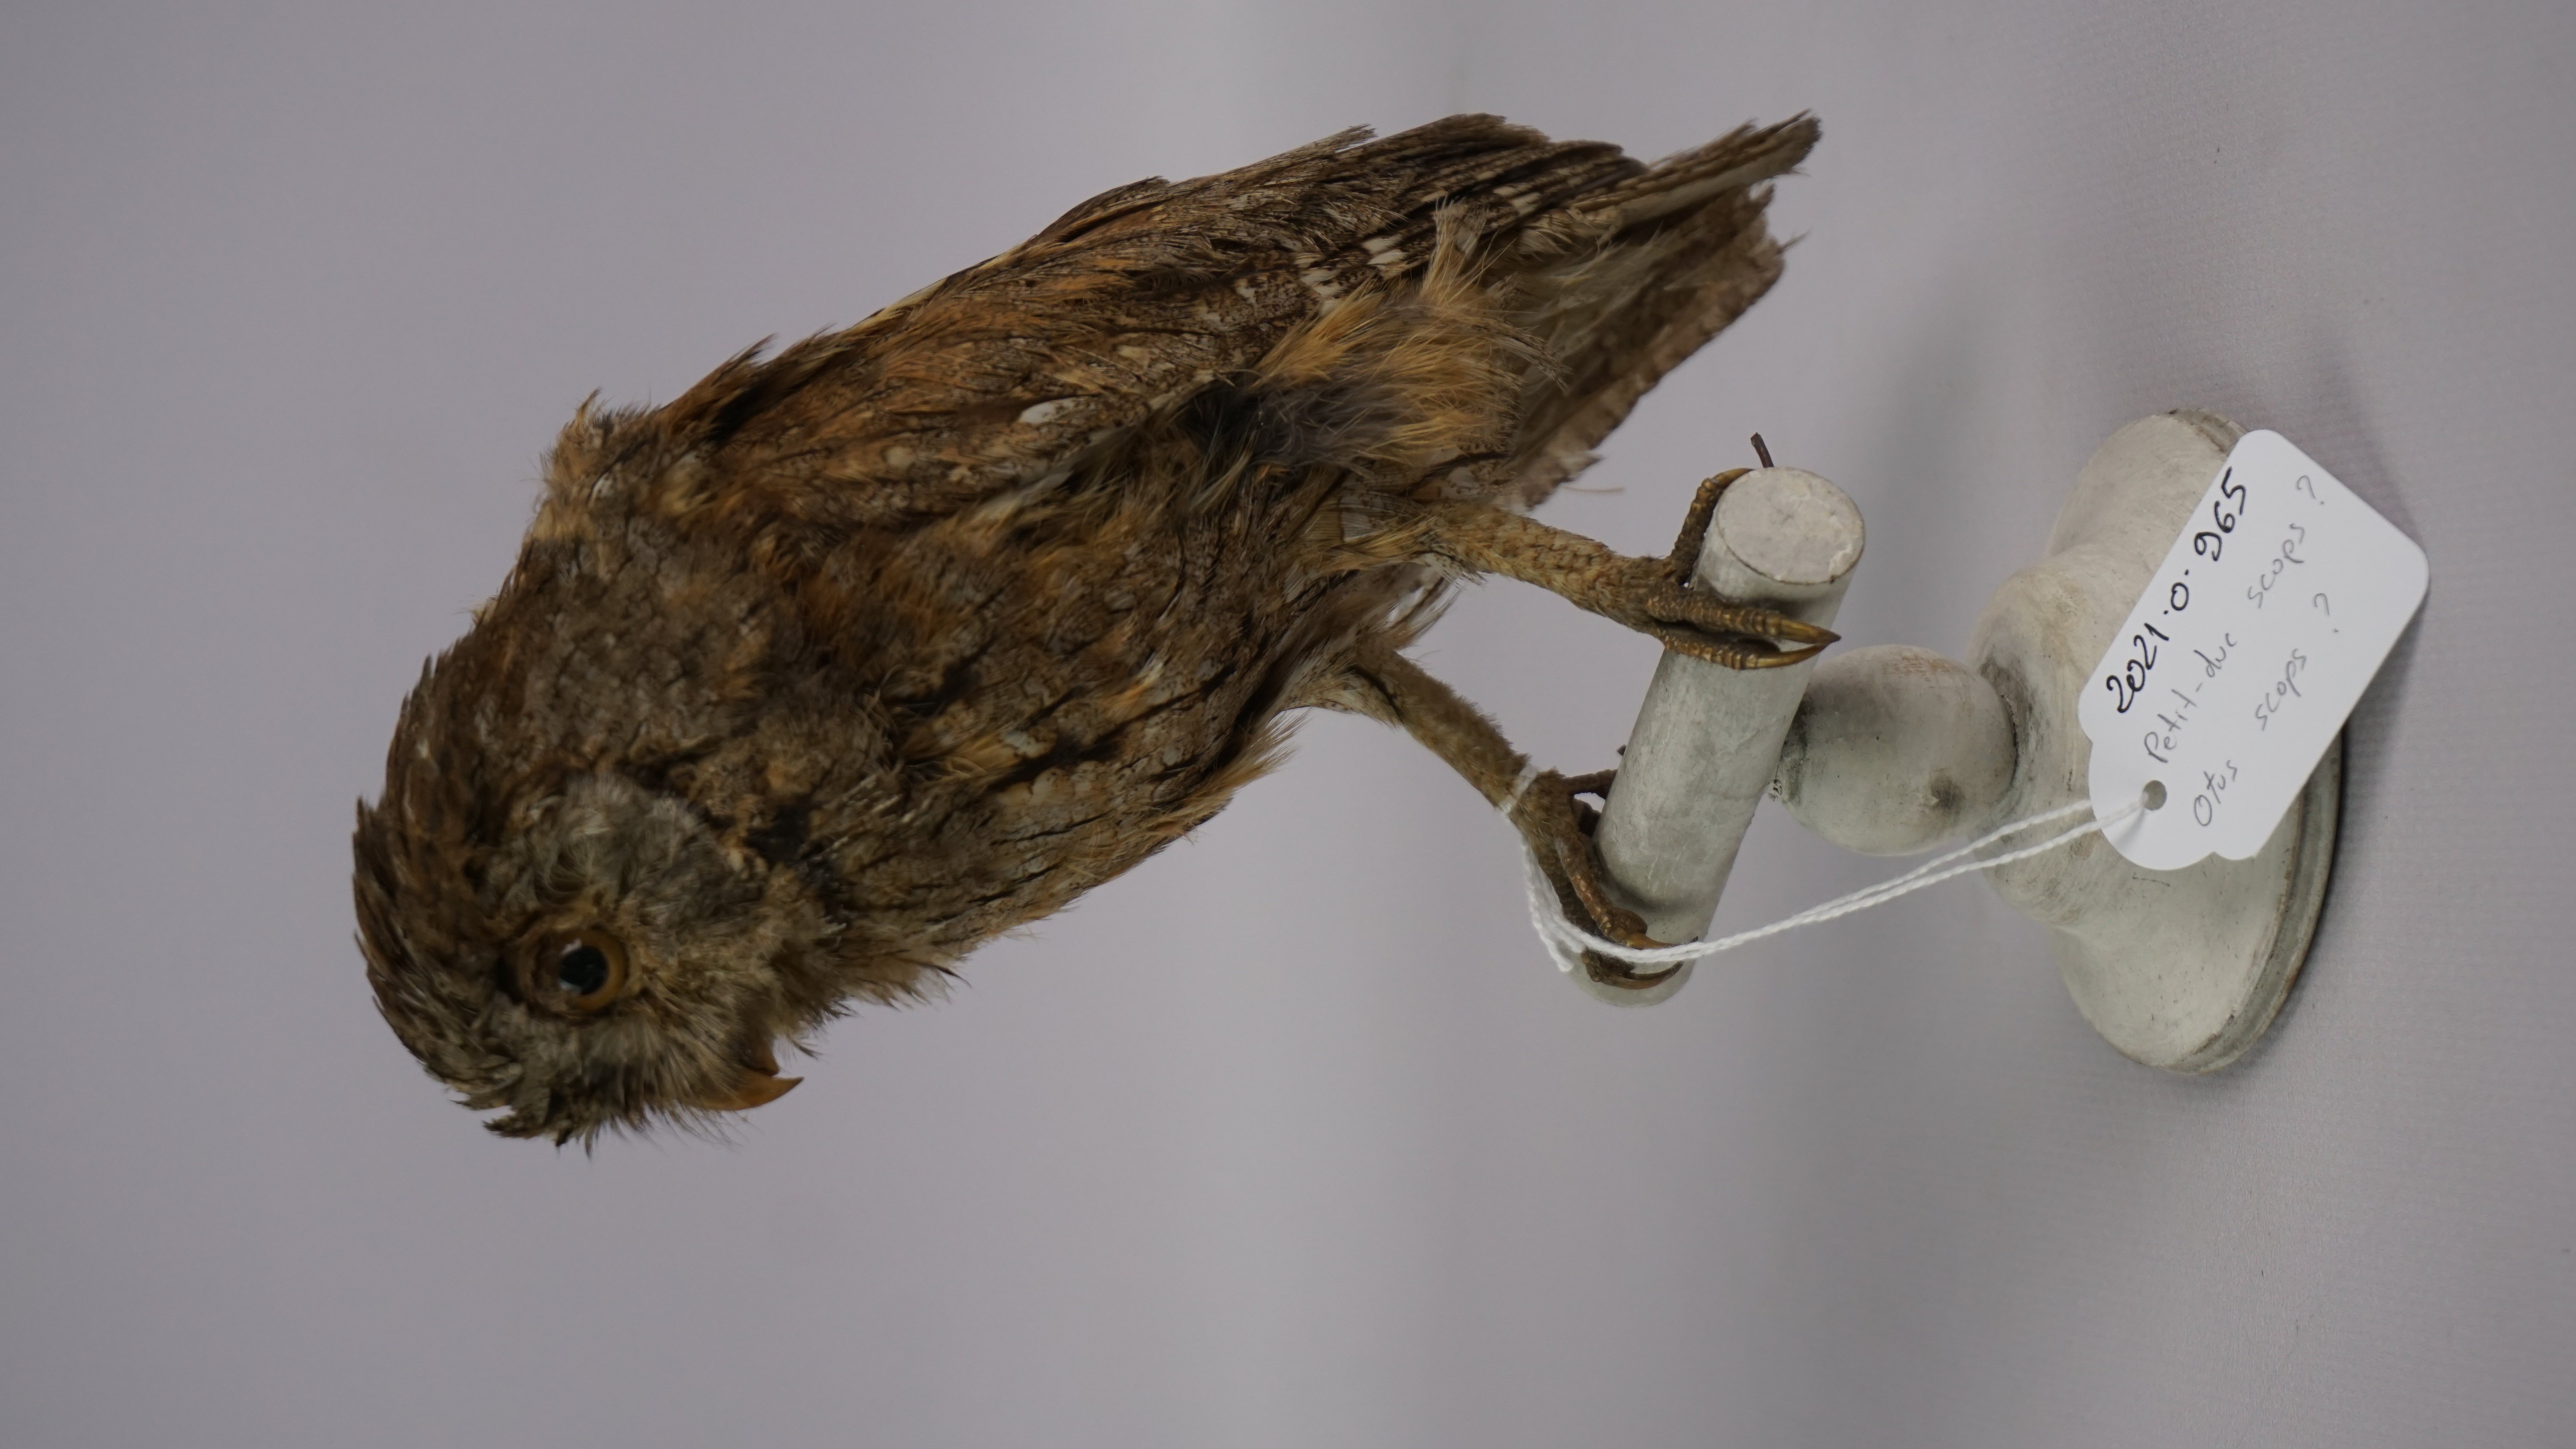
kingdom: Animalia
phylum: Chordata
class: Aves
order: Strigiformes
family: Strigidae
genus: Otus
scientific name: Otus scops
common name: Eurasian scops owl
